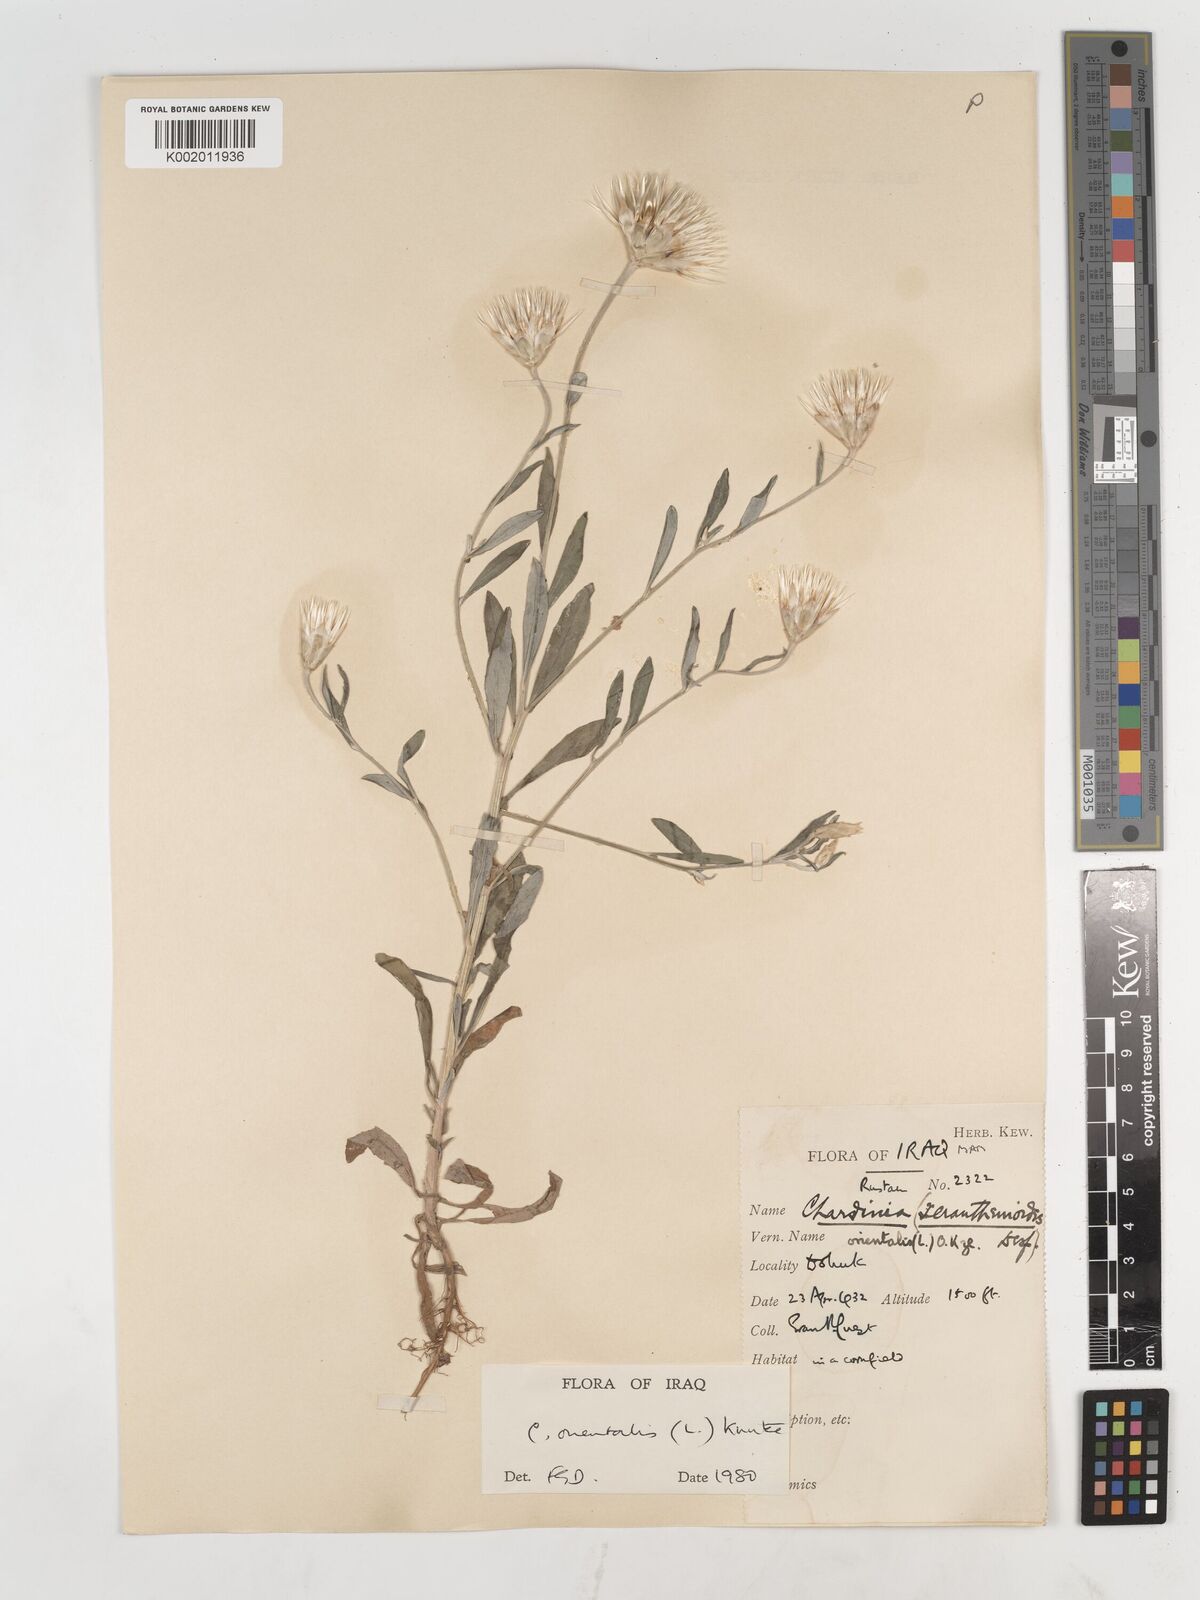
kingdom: Plantae
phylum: Tracheophyta
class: Magnoliopsida
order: Asterales
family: Asteraceae
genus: Chardinia
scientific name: Chardinia orientalis
